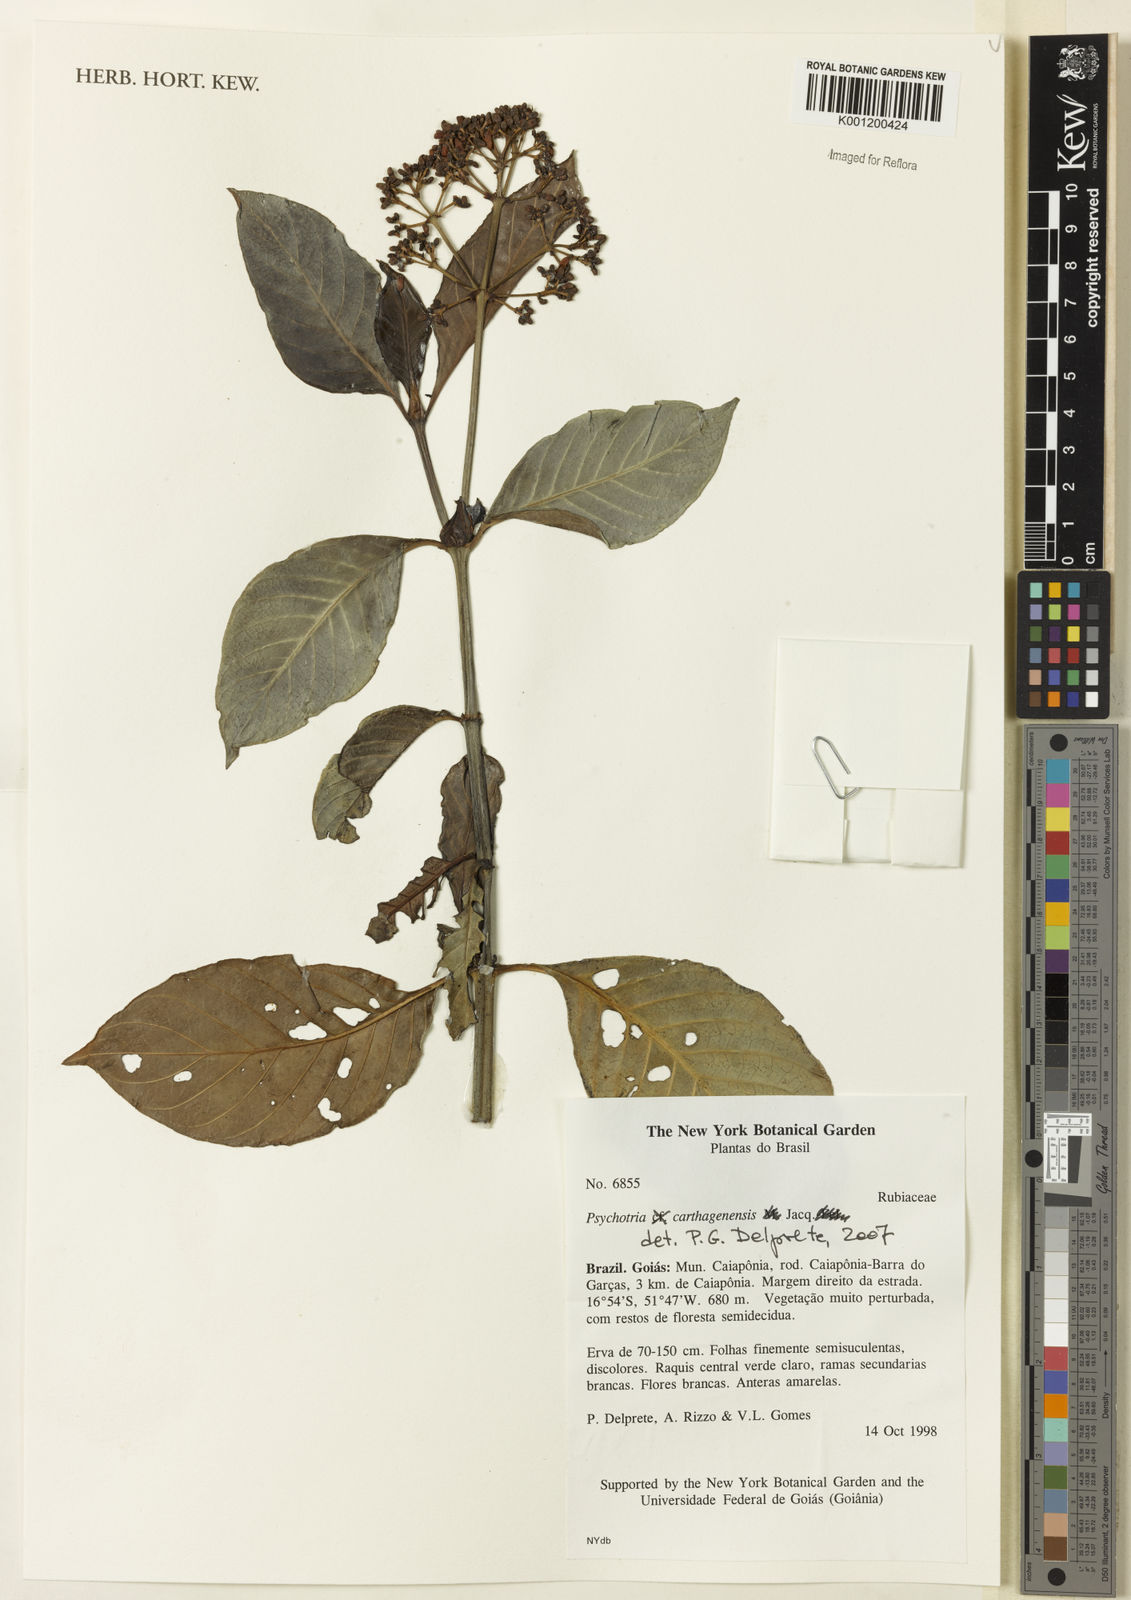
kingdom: Plantae
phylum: Tracheophyta
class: Magnoliopsida
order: Gentianales
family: Rubiaceae
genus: Psychotria
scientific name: Psychotria carthagenensis
